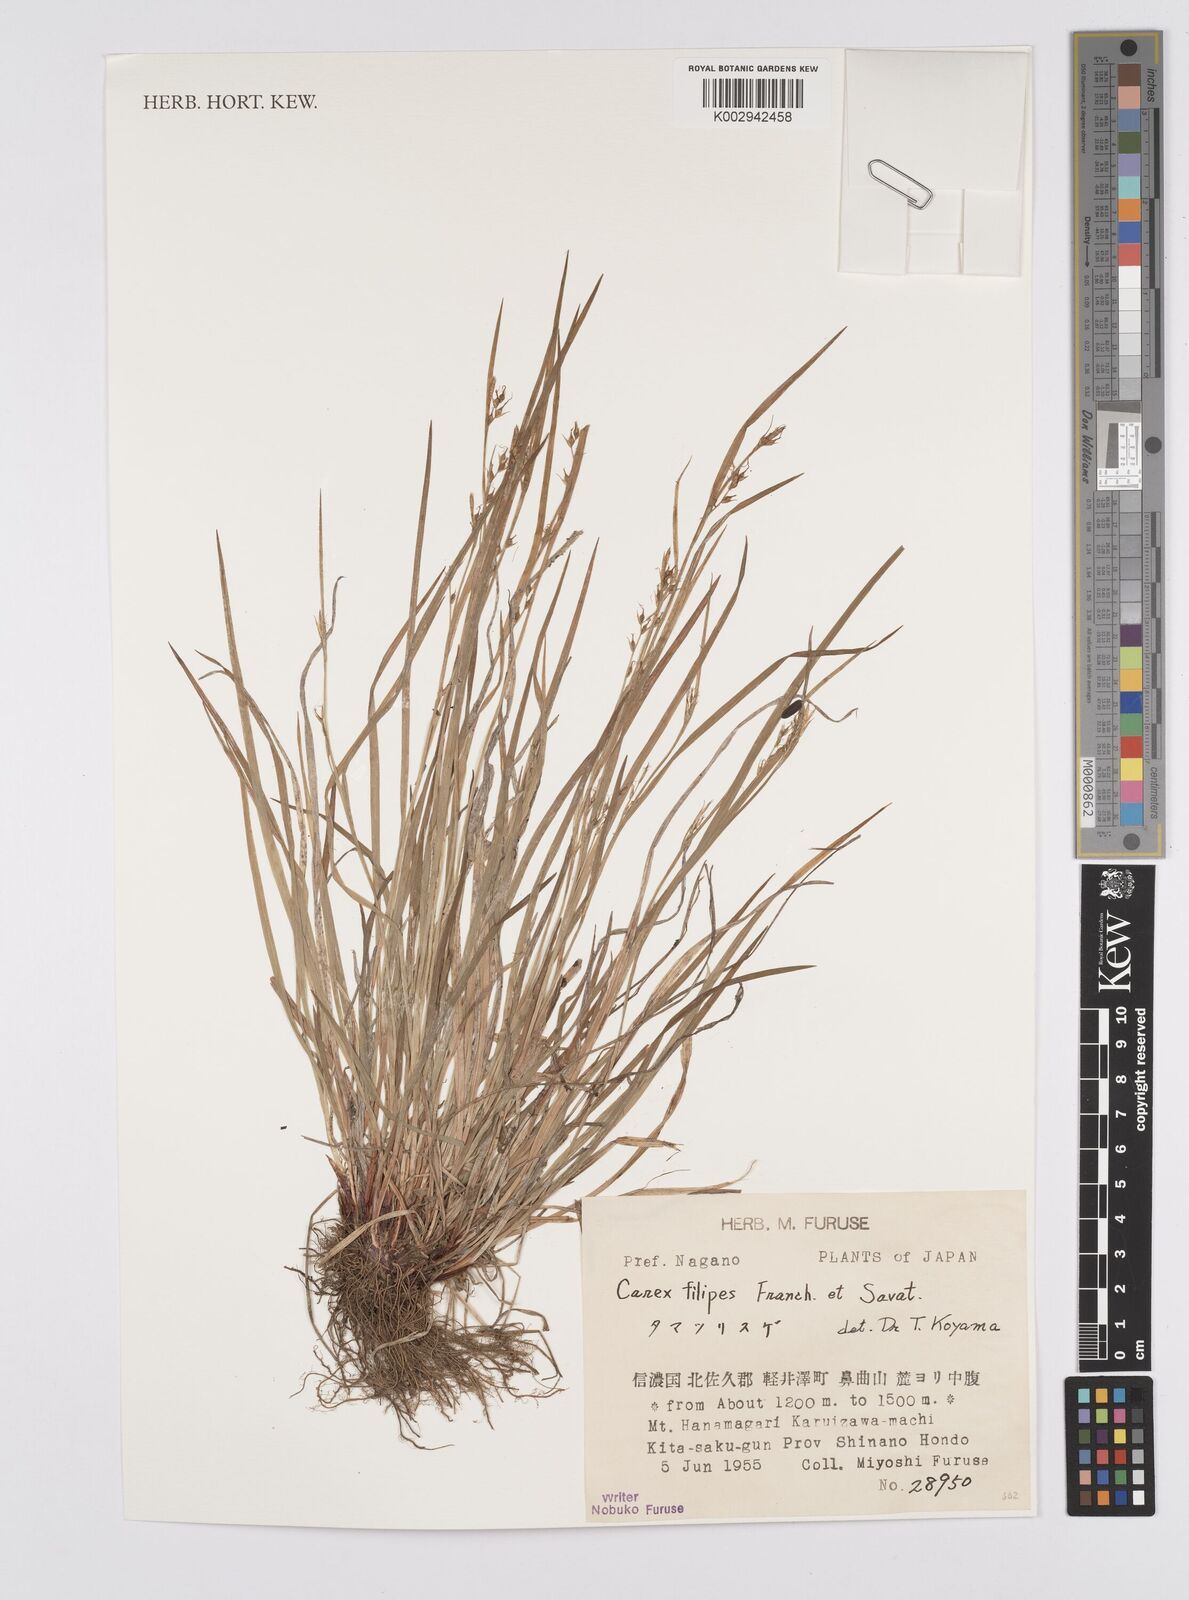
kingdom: Plantae
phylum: Tracheophyta
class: Liliopsida
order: Poales
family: Cyperaceae
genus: Carex
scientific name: Carex filipes
